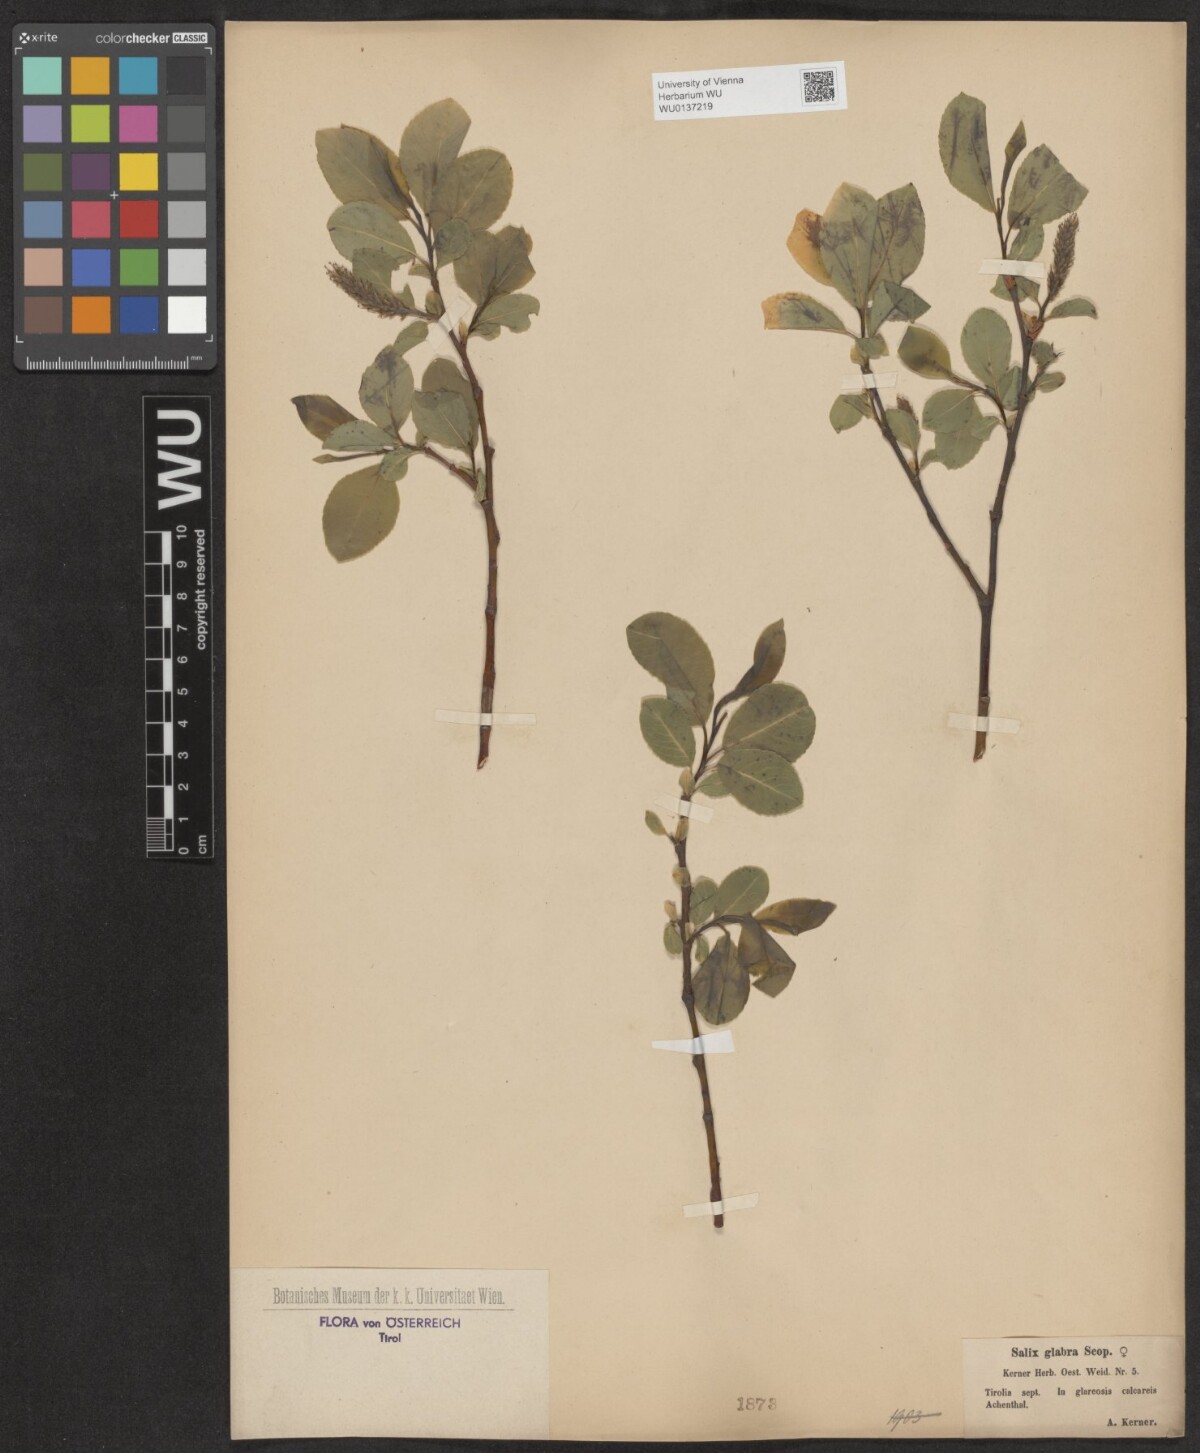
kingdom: Plantae
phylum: Tracheophyta
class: Magnoliopsida
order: Malpighiales
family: Salicaceae
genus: Salix
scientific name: Salix glabra
